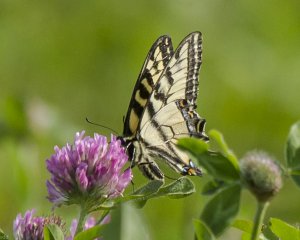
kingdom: Animalia
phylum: Arthropoda
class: Insecta
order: Lepidoptera
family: Papilionidae
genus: Pterourus
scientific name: Pterourus canadensis
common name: Canadian Tiger Swallowtail
